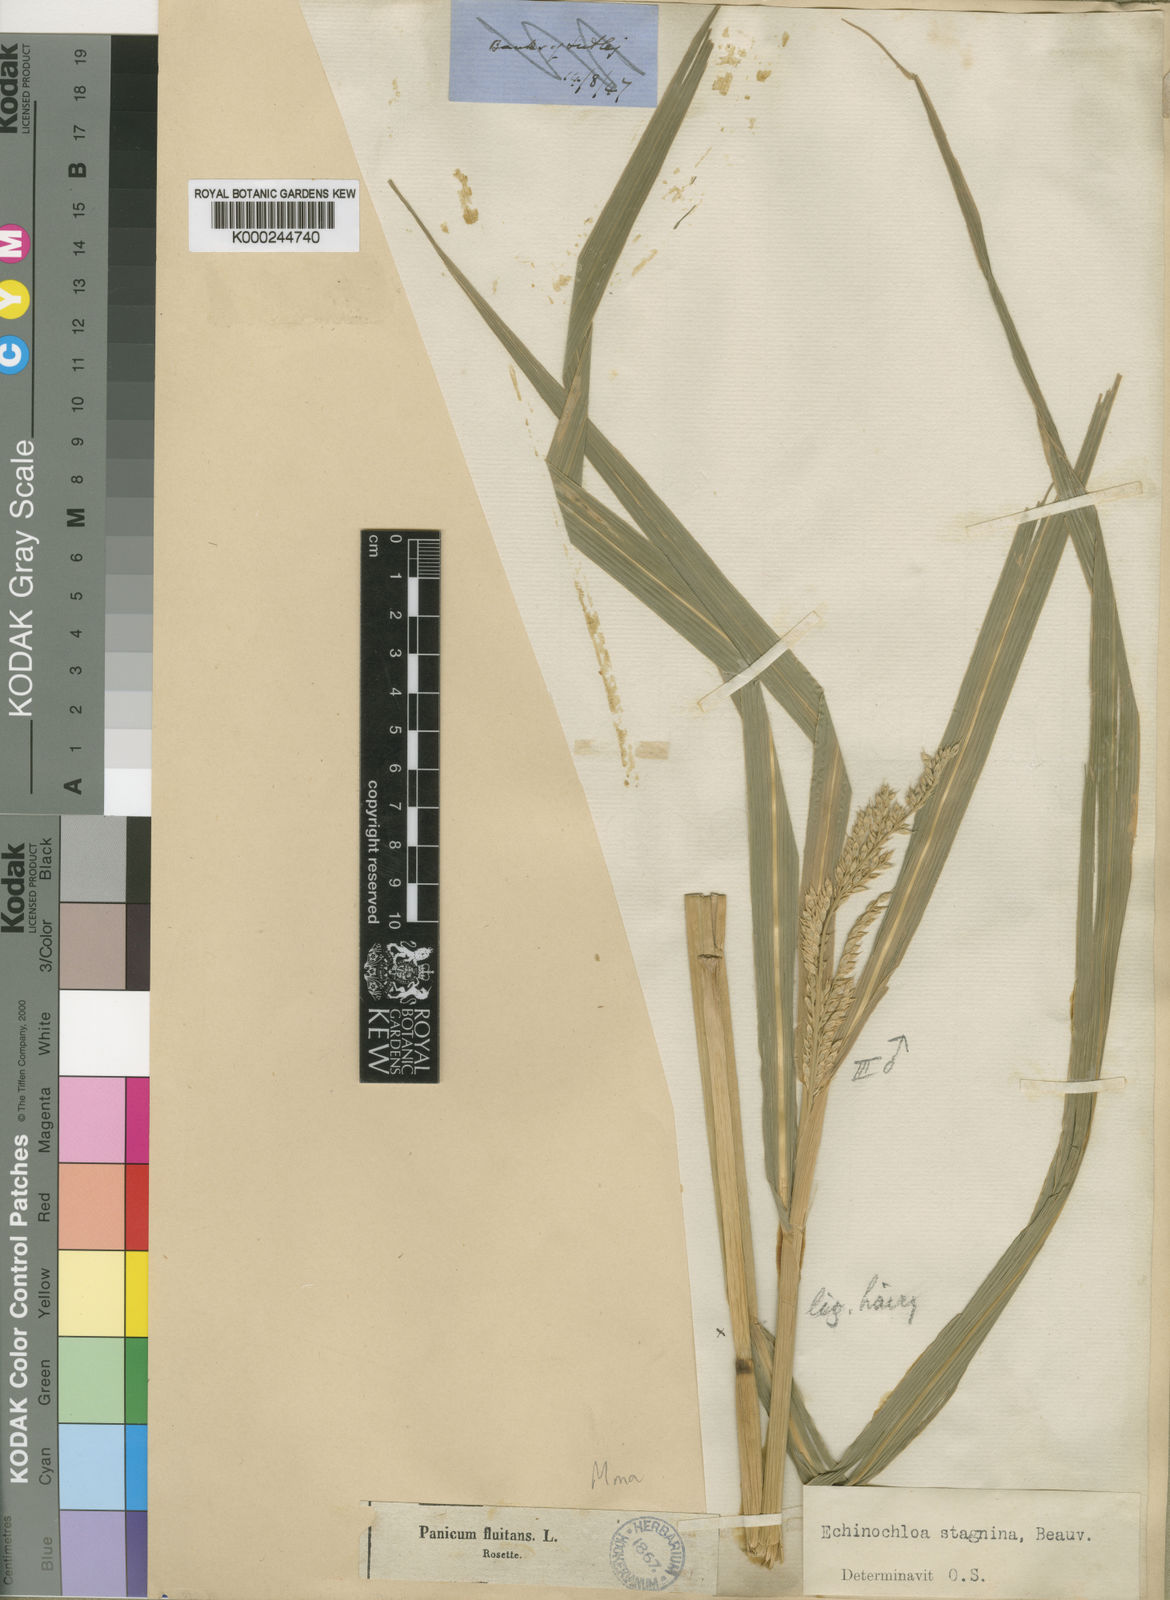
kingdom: Plantae
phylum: Tracheophyta
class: Liliopsida
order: Poales
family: Poaceae
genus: Echinochloa
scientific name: Echinochloa stagnina
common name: Burgu grass
